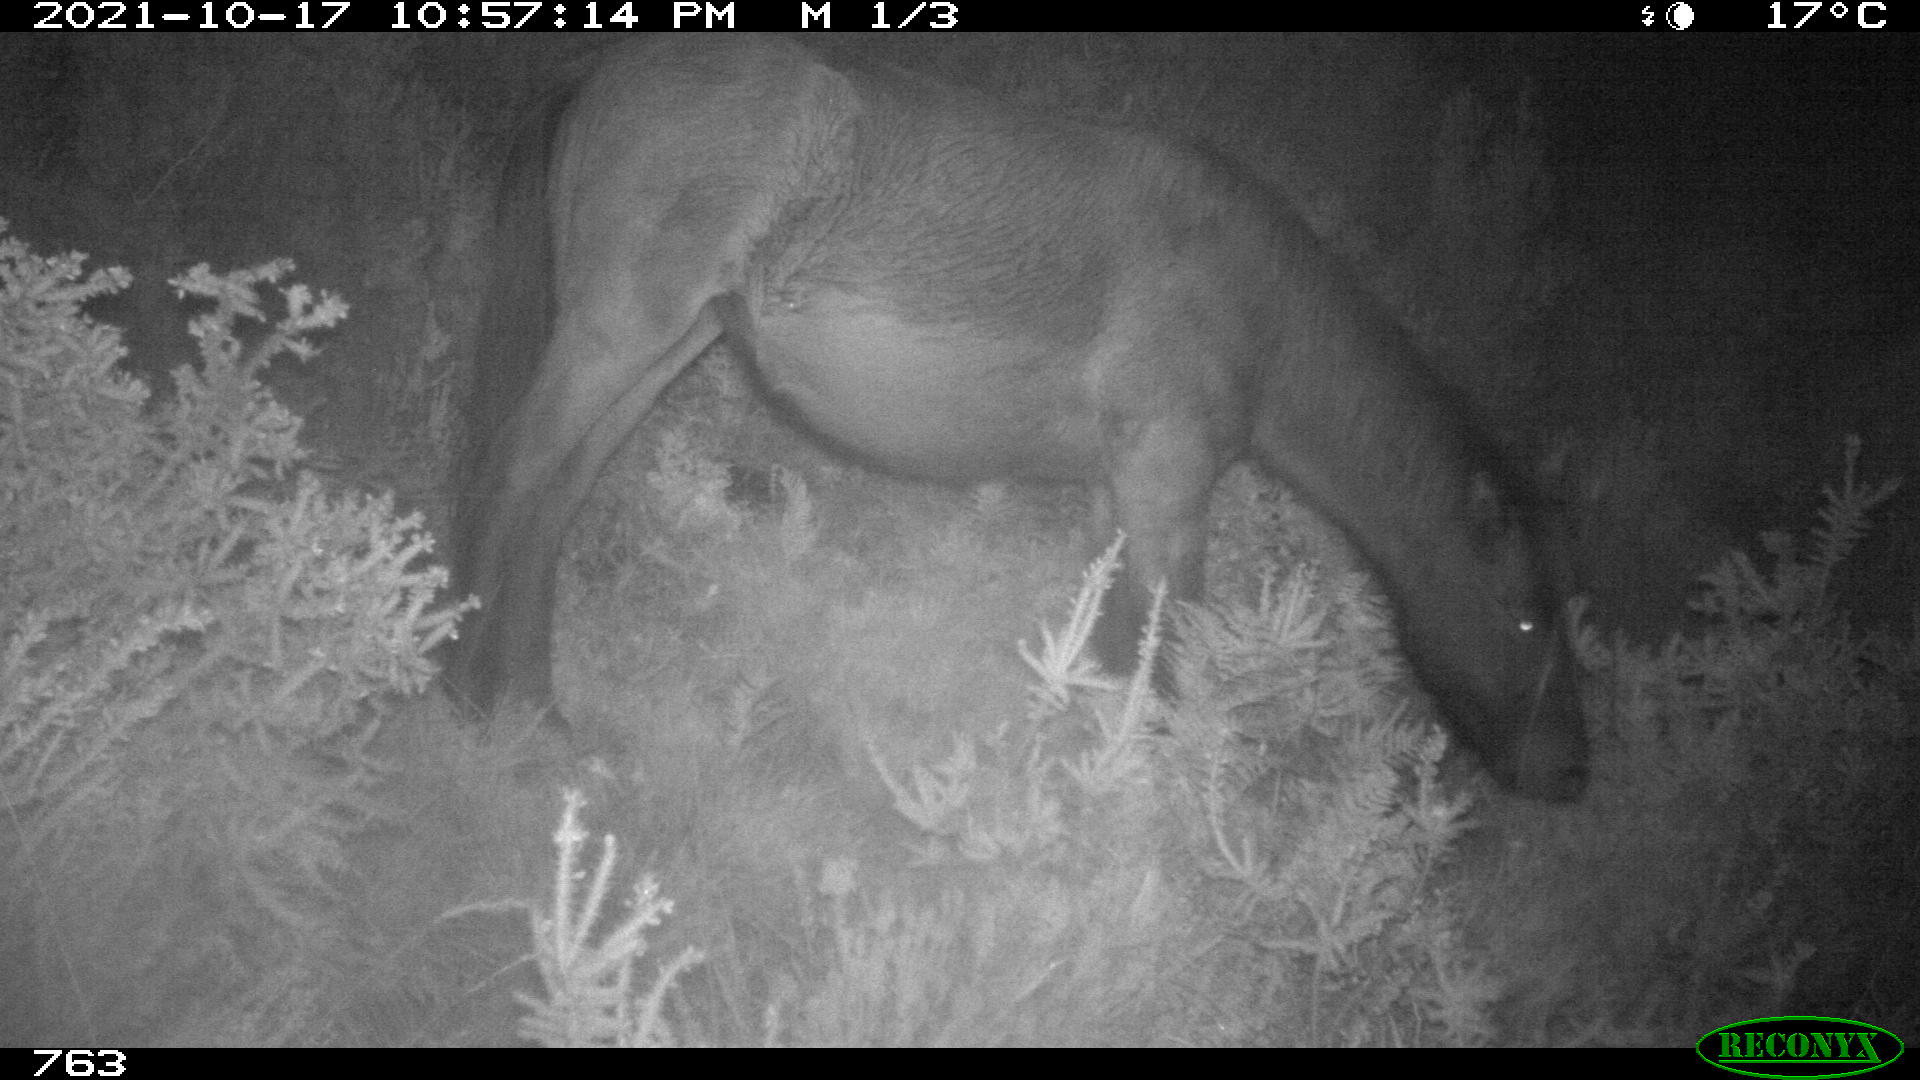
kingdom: Animalia
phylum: Chordata
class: Mammalia
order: Perissodactyla
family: Equidae
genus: Equus
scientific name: Equus caballus
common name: Horse
